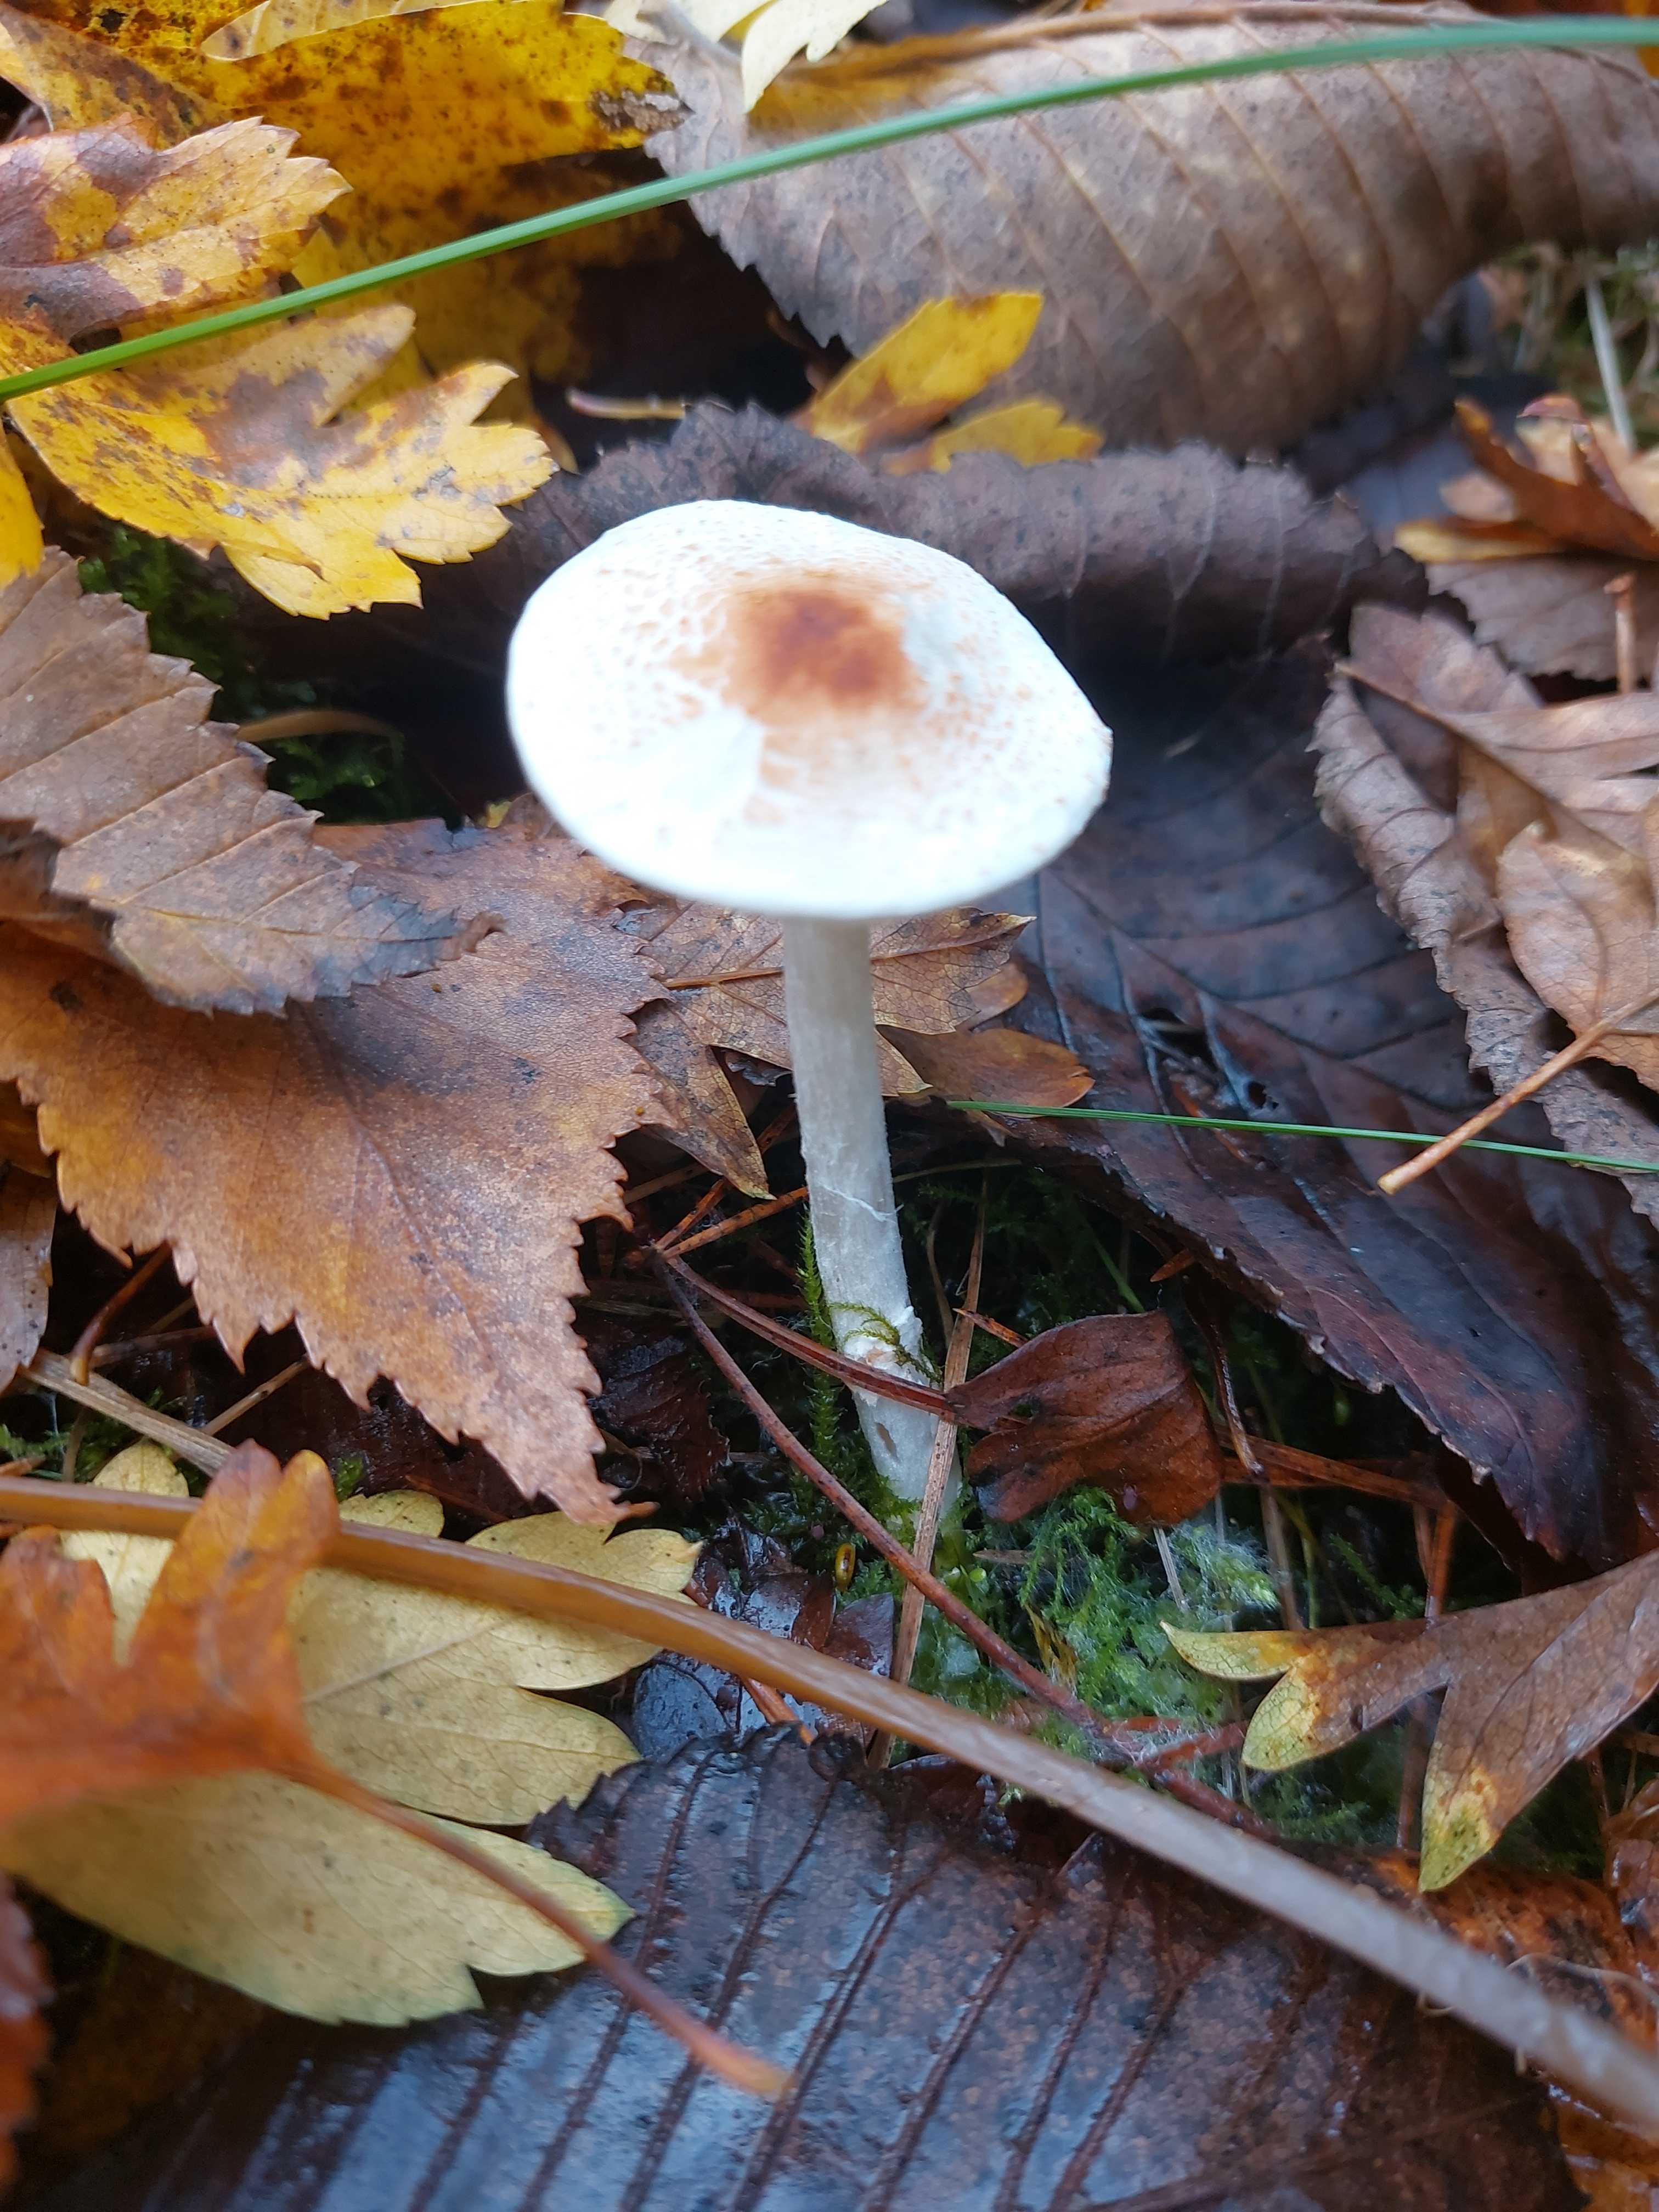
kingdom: Fungi
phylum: Basidiomycota
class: Agaricomycetes
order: Agaricales
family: Agaricaceae
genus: Lepiota
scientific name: Lepiota cristata
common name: stinkende parasolhat
